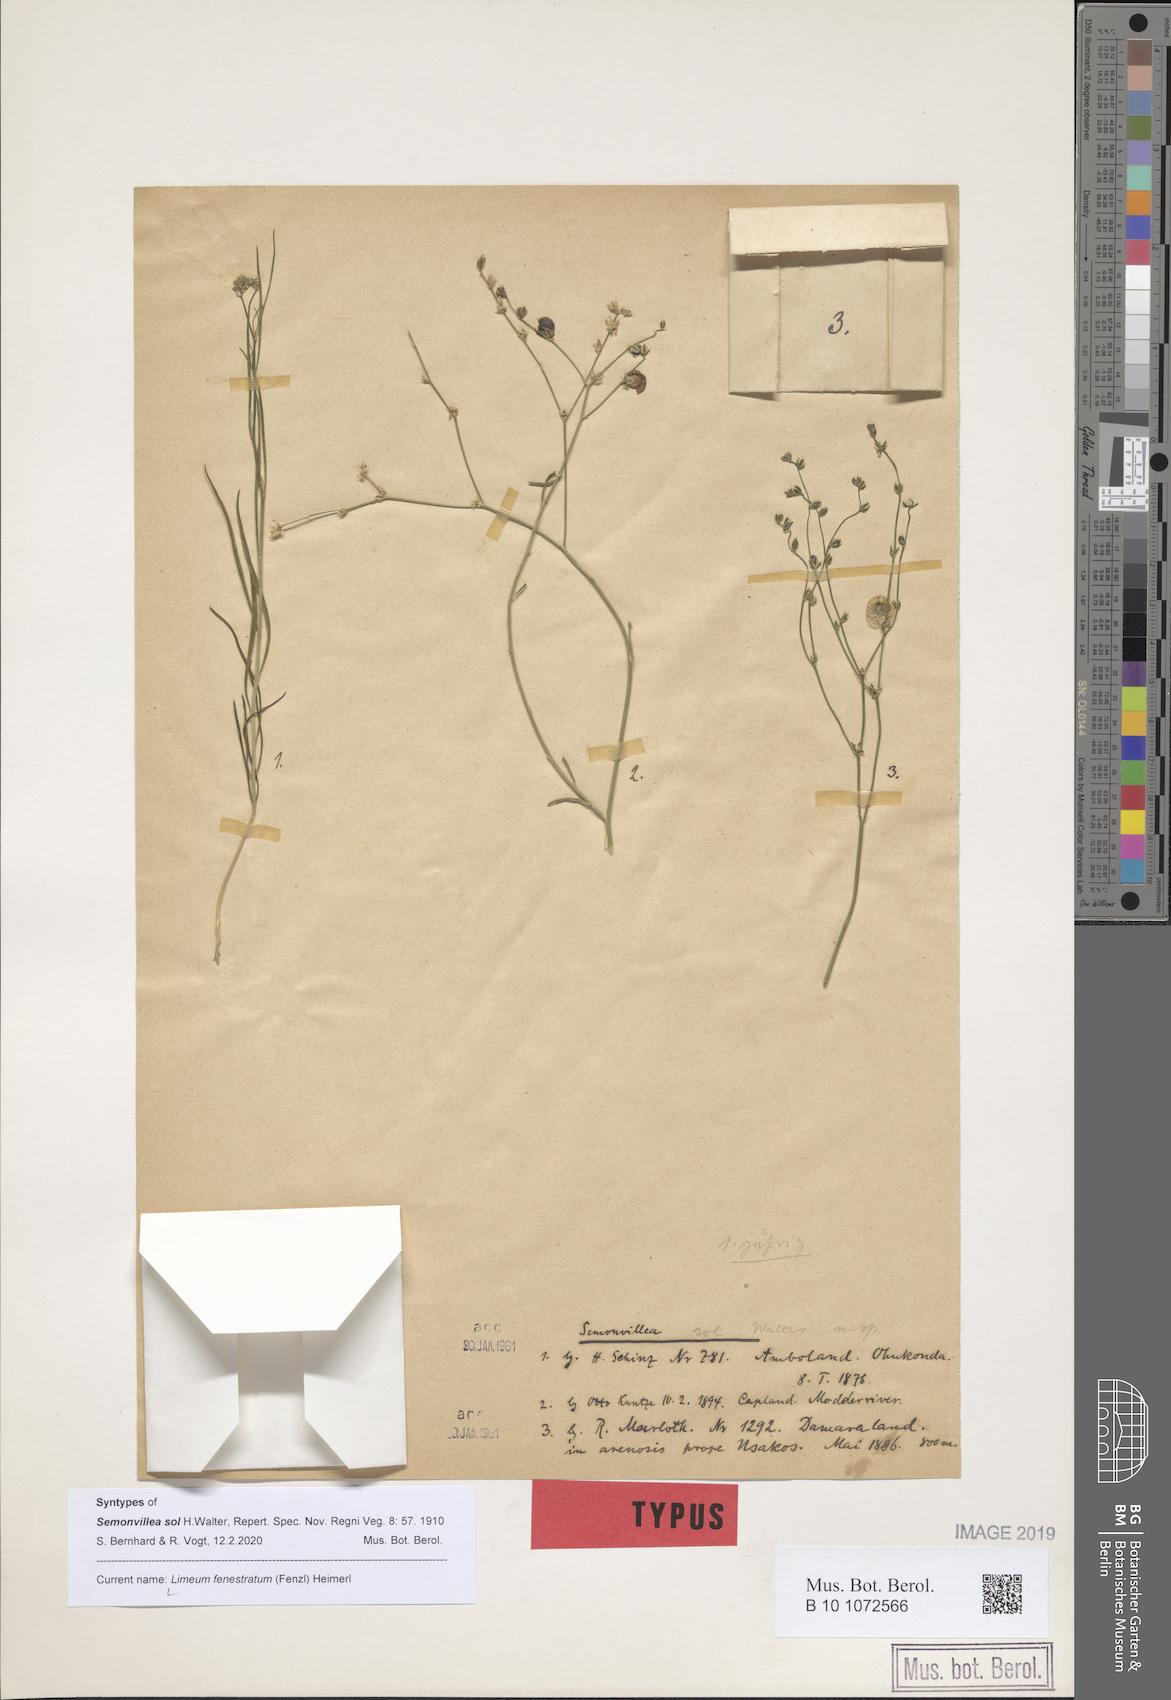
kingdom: Plantae
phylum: Tracheophyta
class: Magnoliopsida
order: Caryophyllales
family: Limeaceae
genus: Limeum
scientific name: Limeum fenestratum
